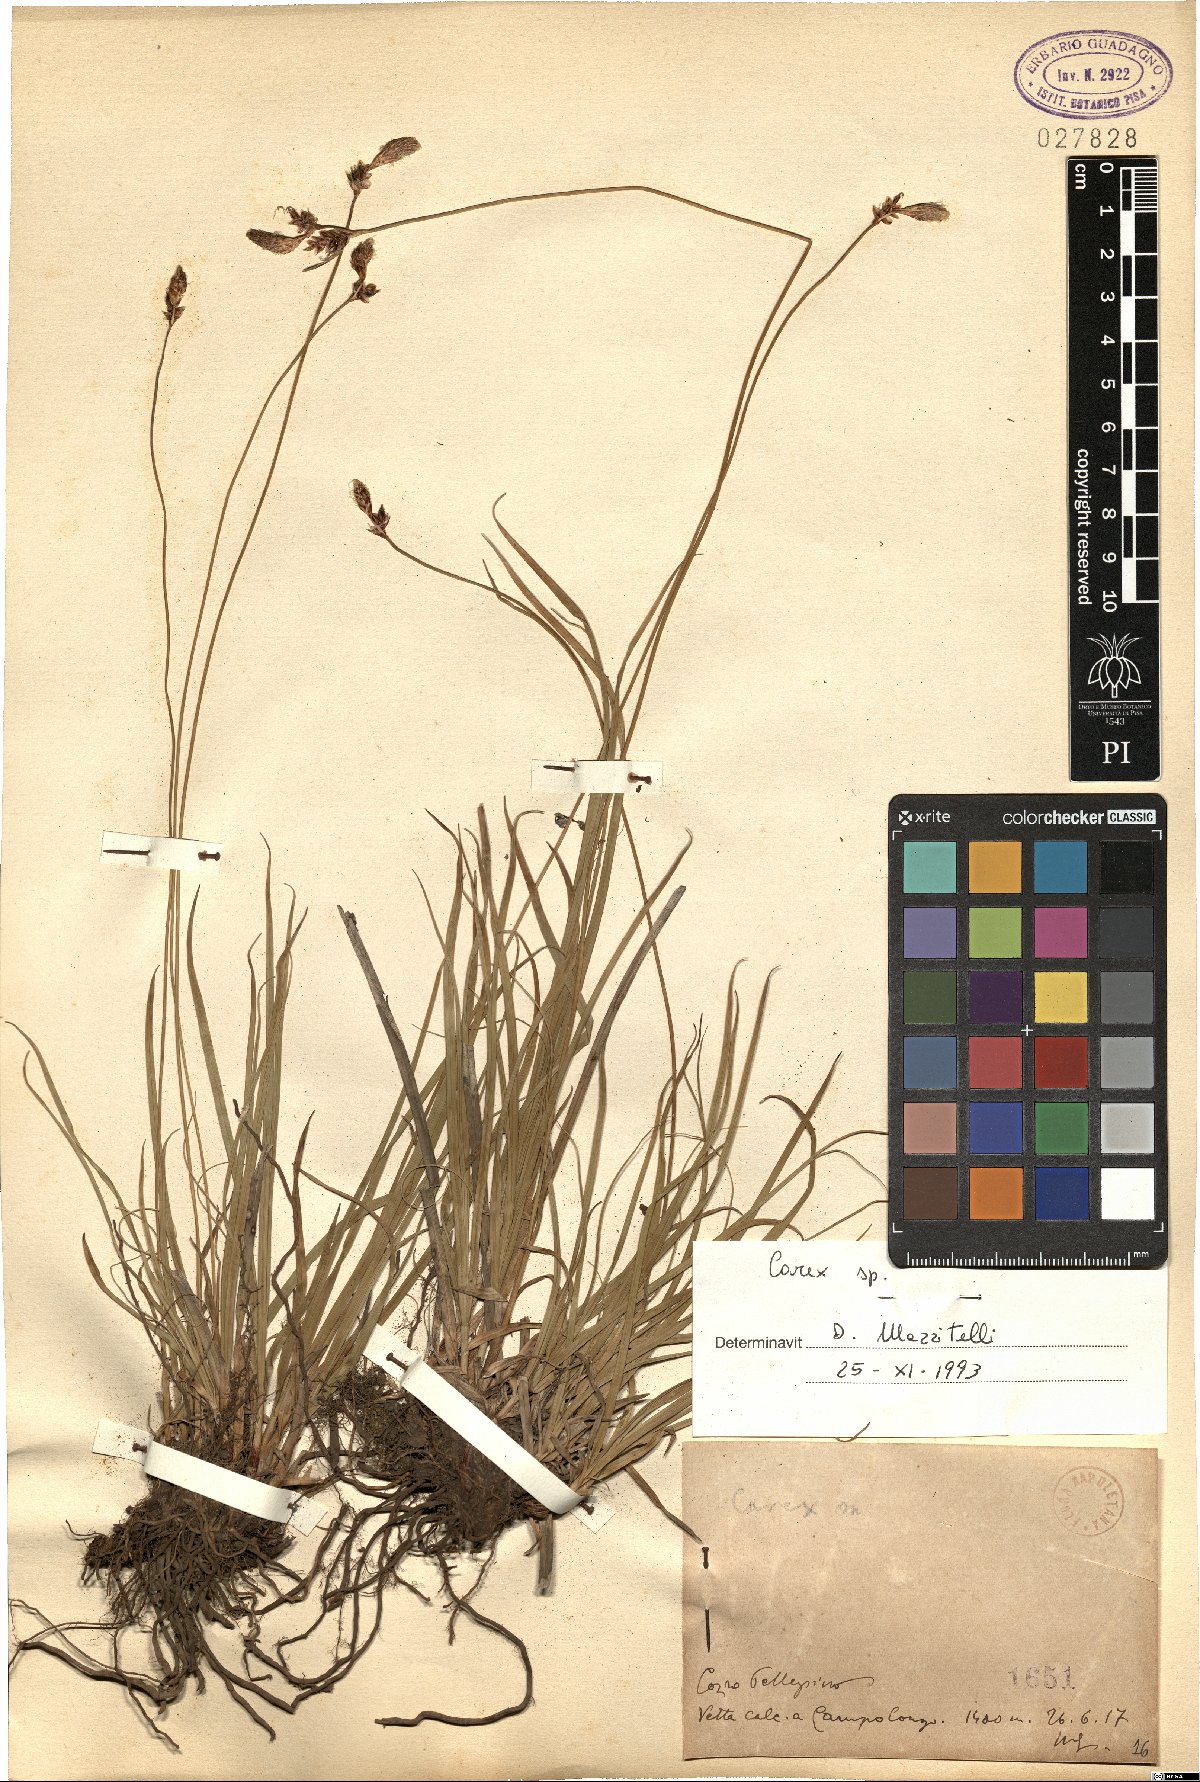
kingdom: Plantae
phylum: Tracheophyta
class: Liliopsida
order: Poales
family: Cyperaceae
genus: Carex
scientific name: Carex
